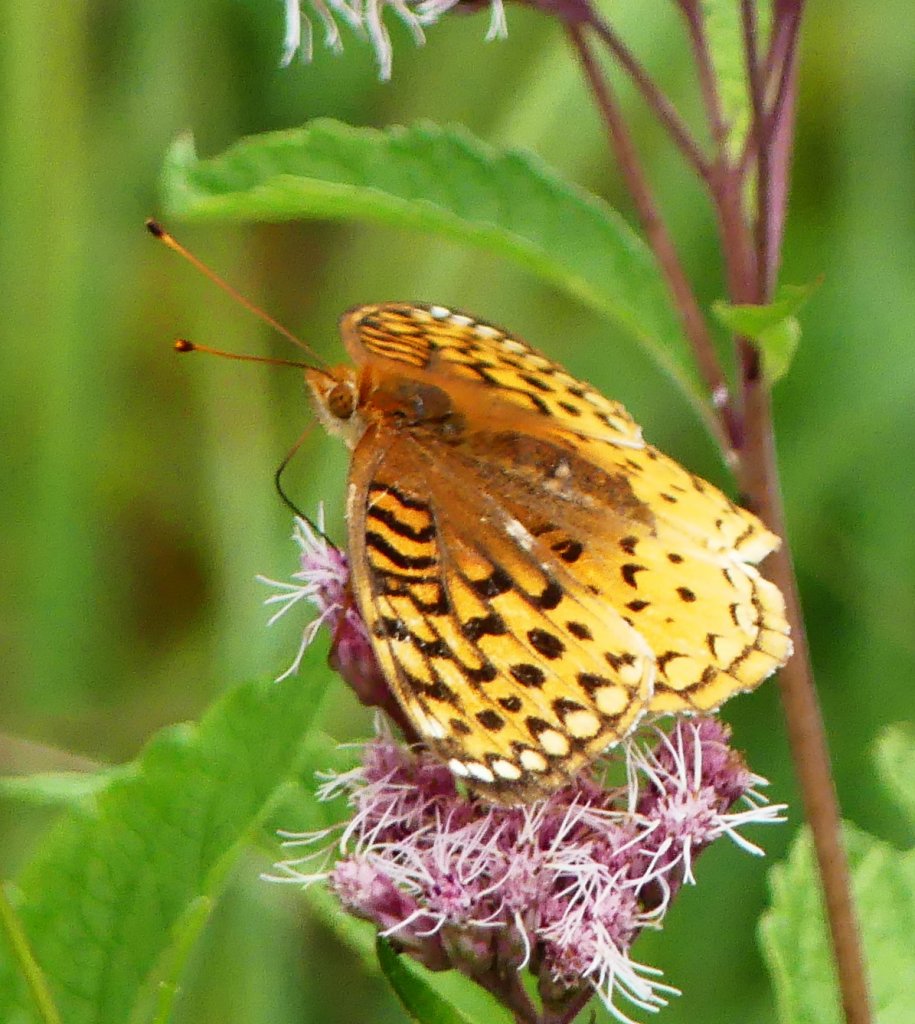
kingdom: Animalia
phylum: Arthropoda
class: Insecta
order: Lepidoptera
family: Nymphalidae
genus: Speyeria
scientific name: Speyeria cybele
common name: Great Spangled Fritillary
